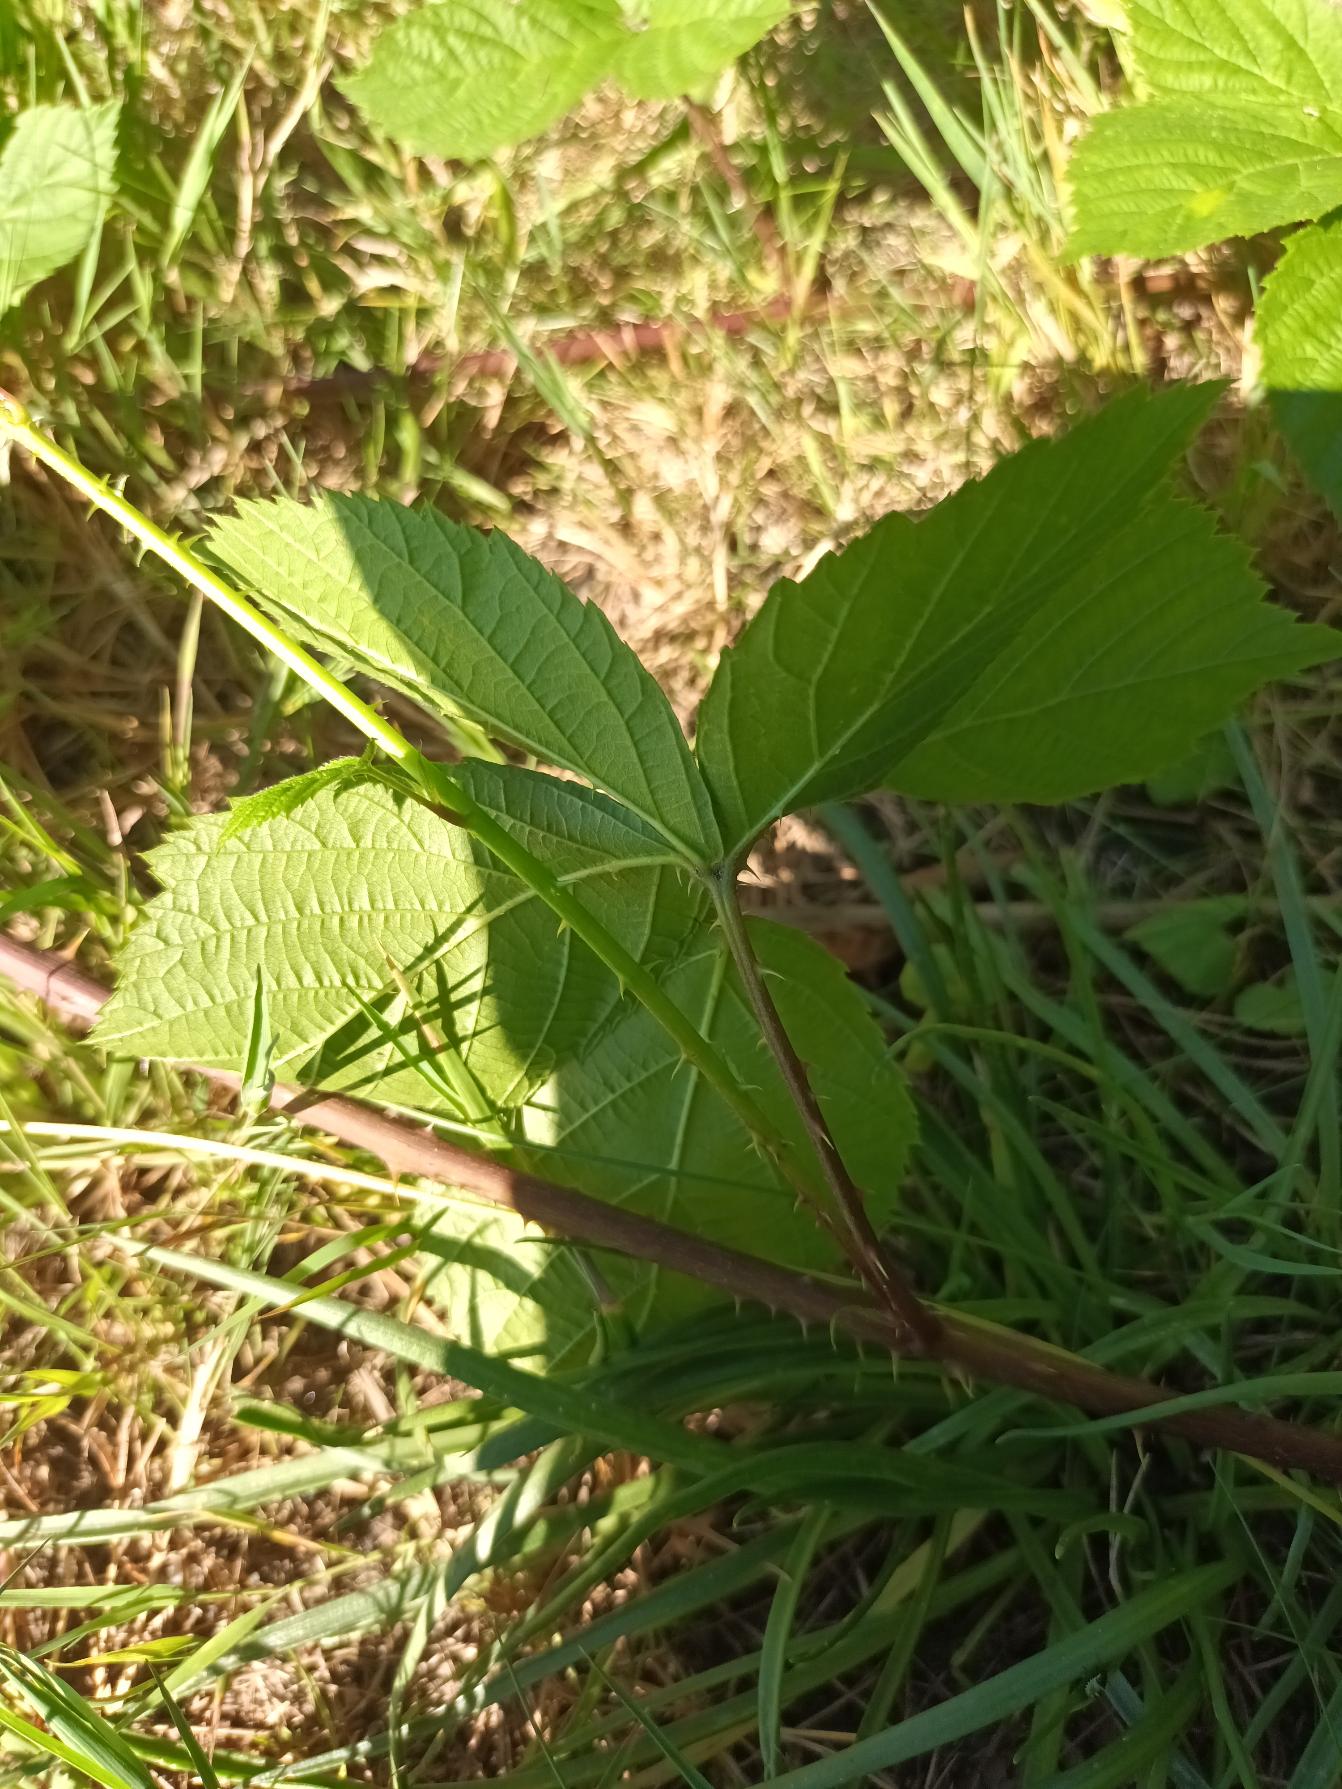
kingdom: Plantae
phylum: Tracheophyta
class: Magnoliopsida
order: Rosales
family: Rosaceae
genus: Rubus
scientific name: Rubus camptostachys
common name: Håret hasselbrombær
